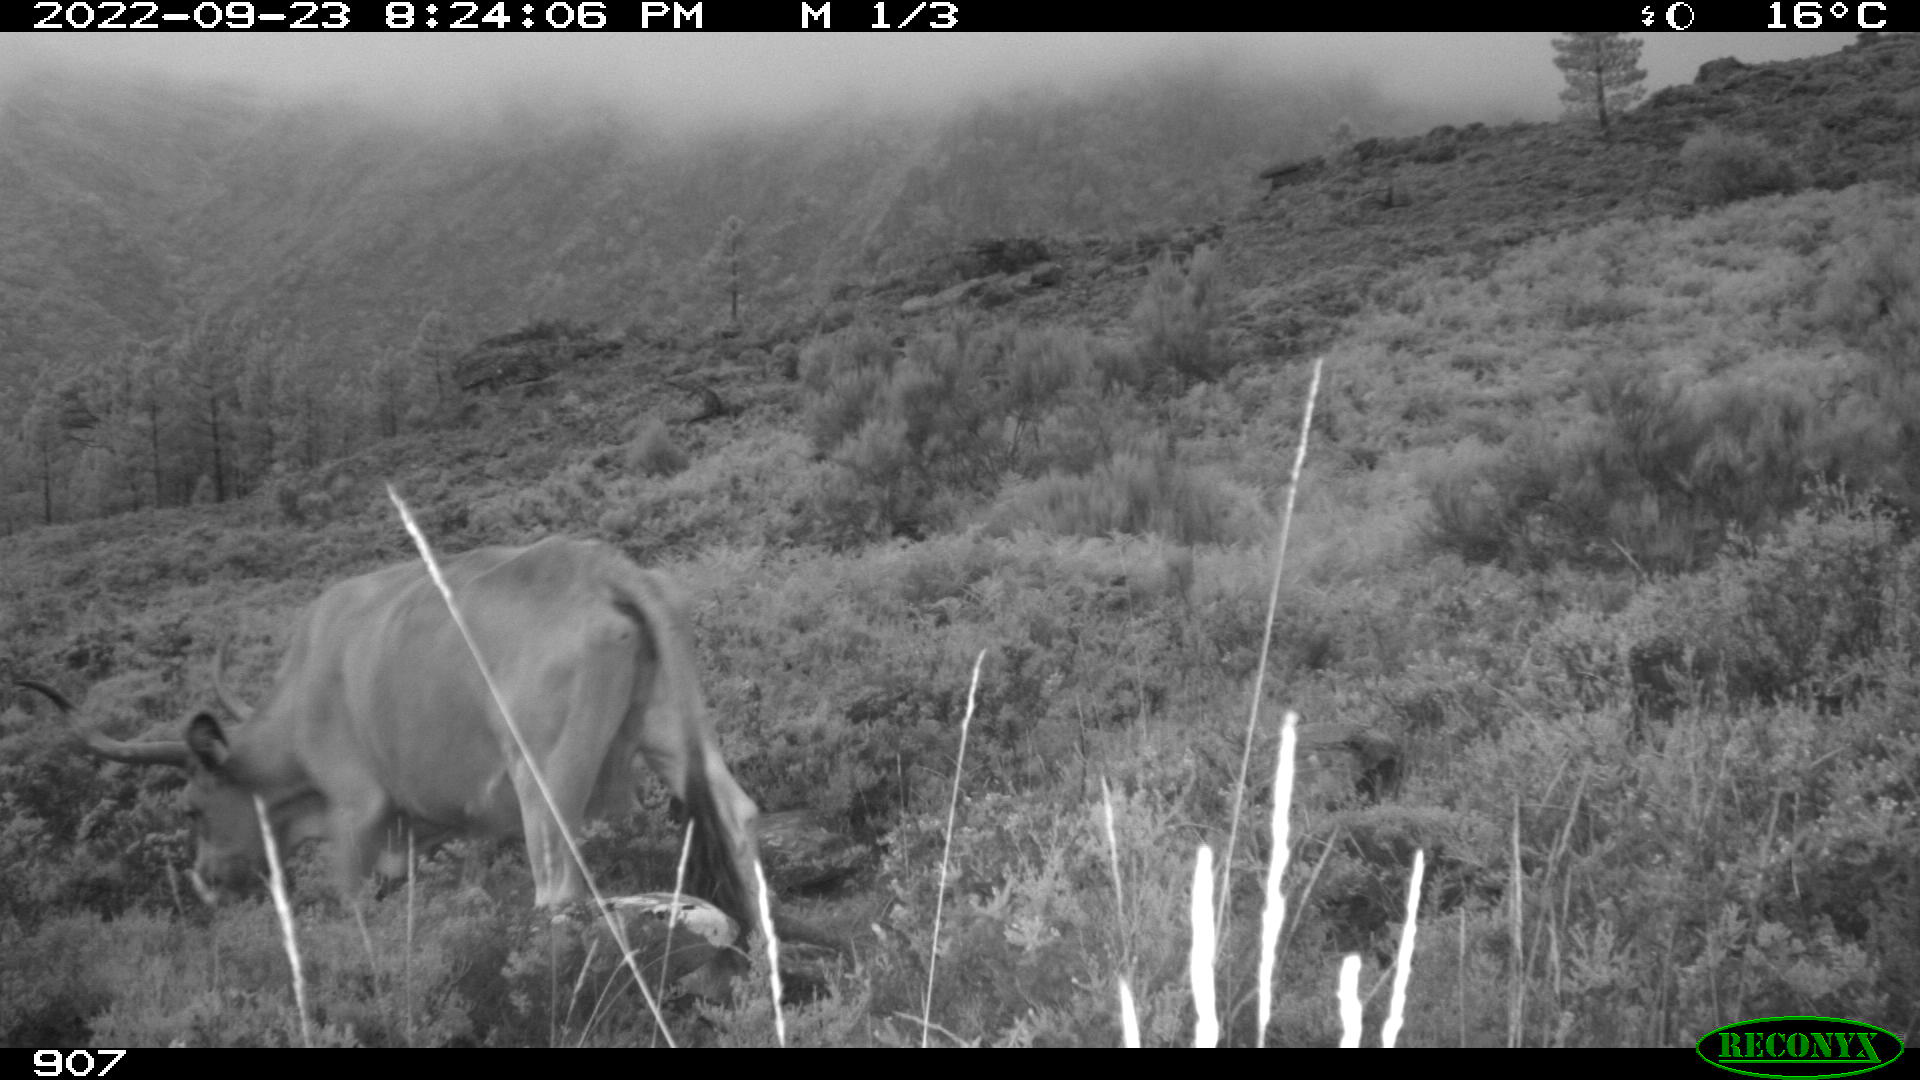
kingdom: Animalia
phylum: Chordata
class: Mammalia
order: Artiodactyla
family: Bovidae
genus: Bos
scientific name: Bos taurus
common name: Domesticated cattle
